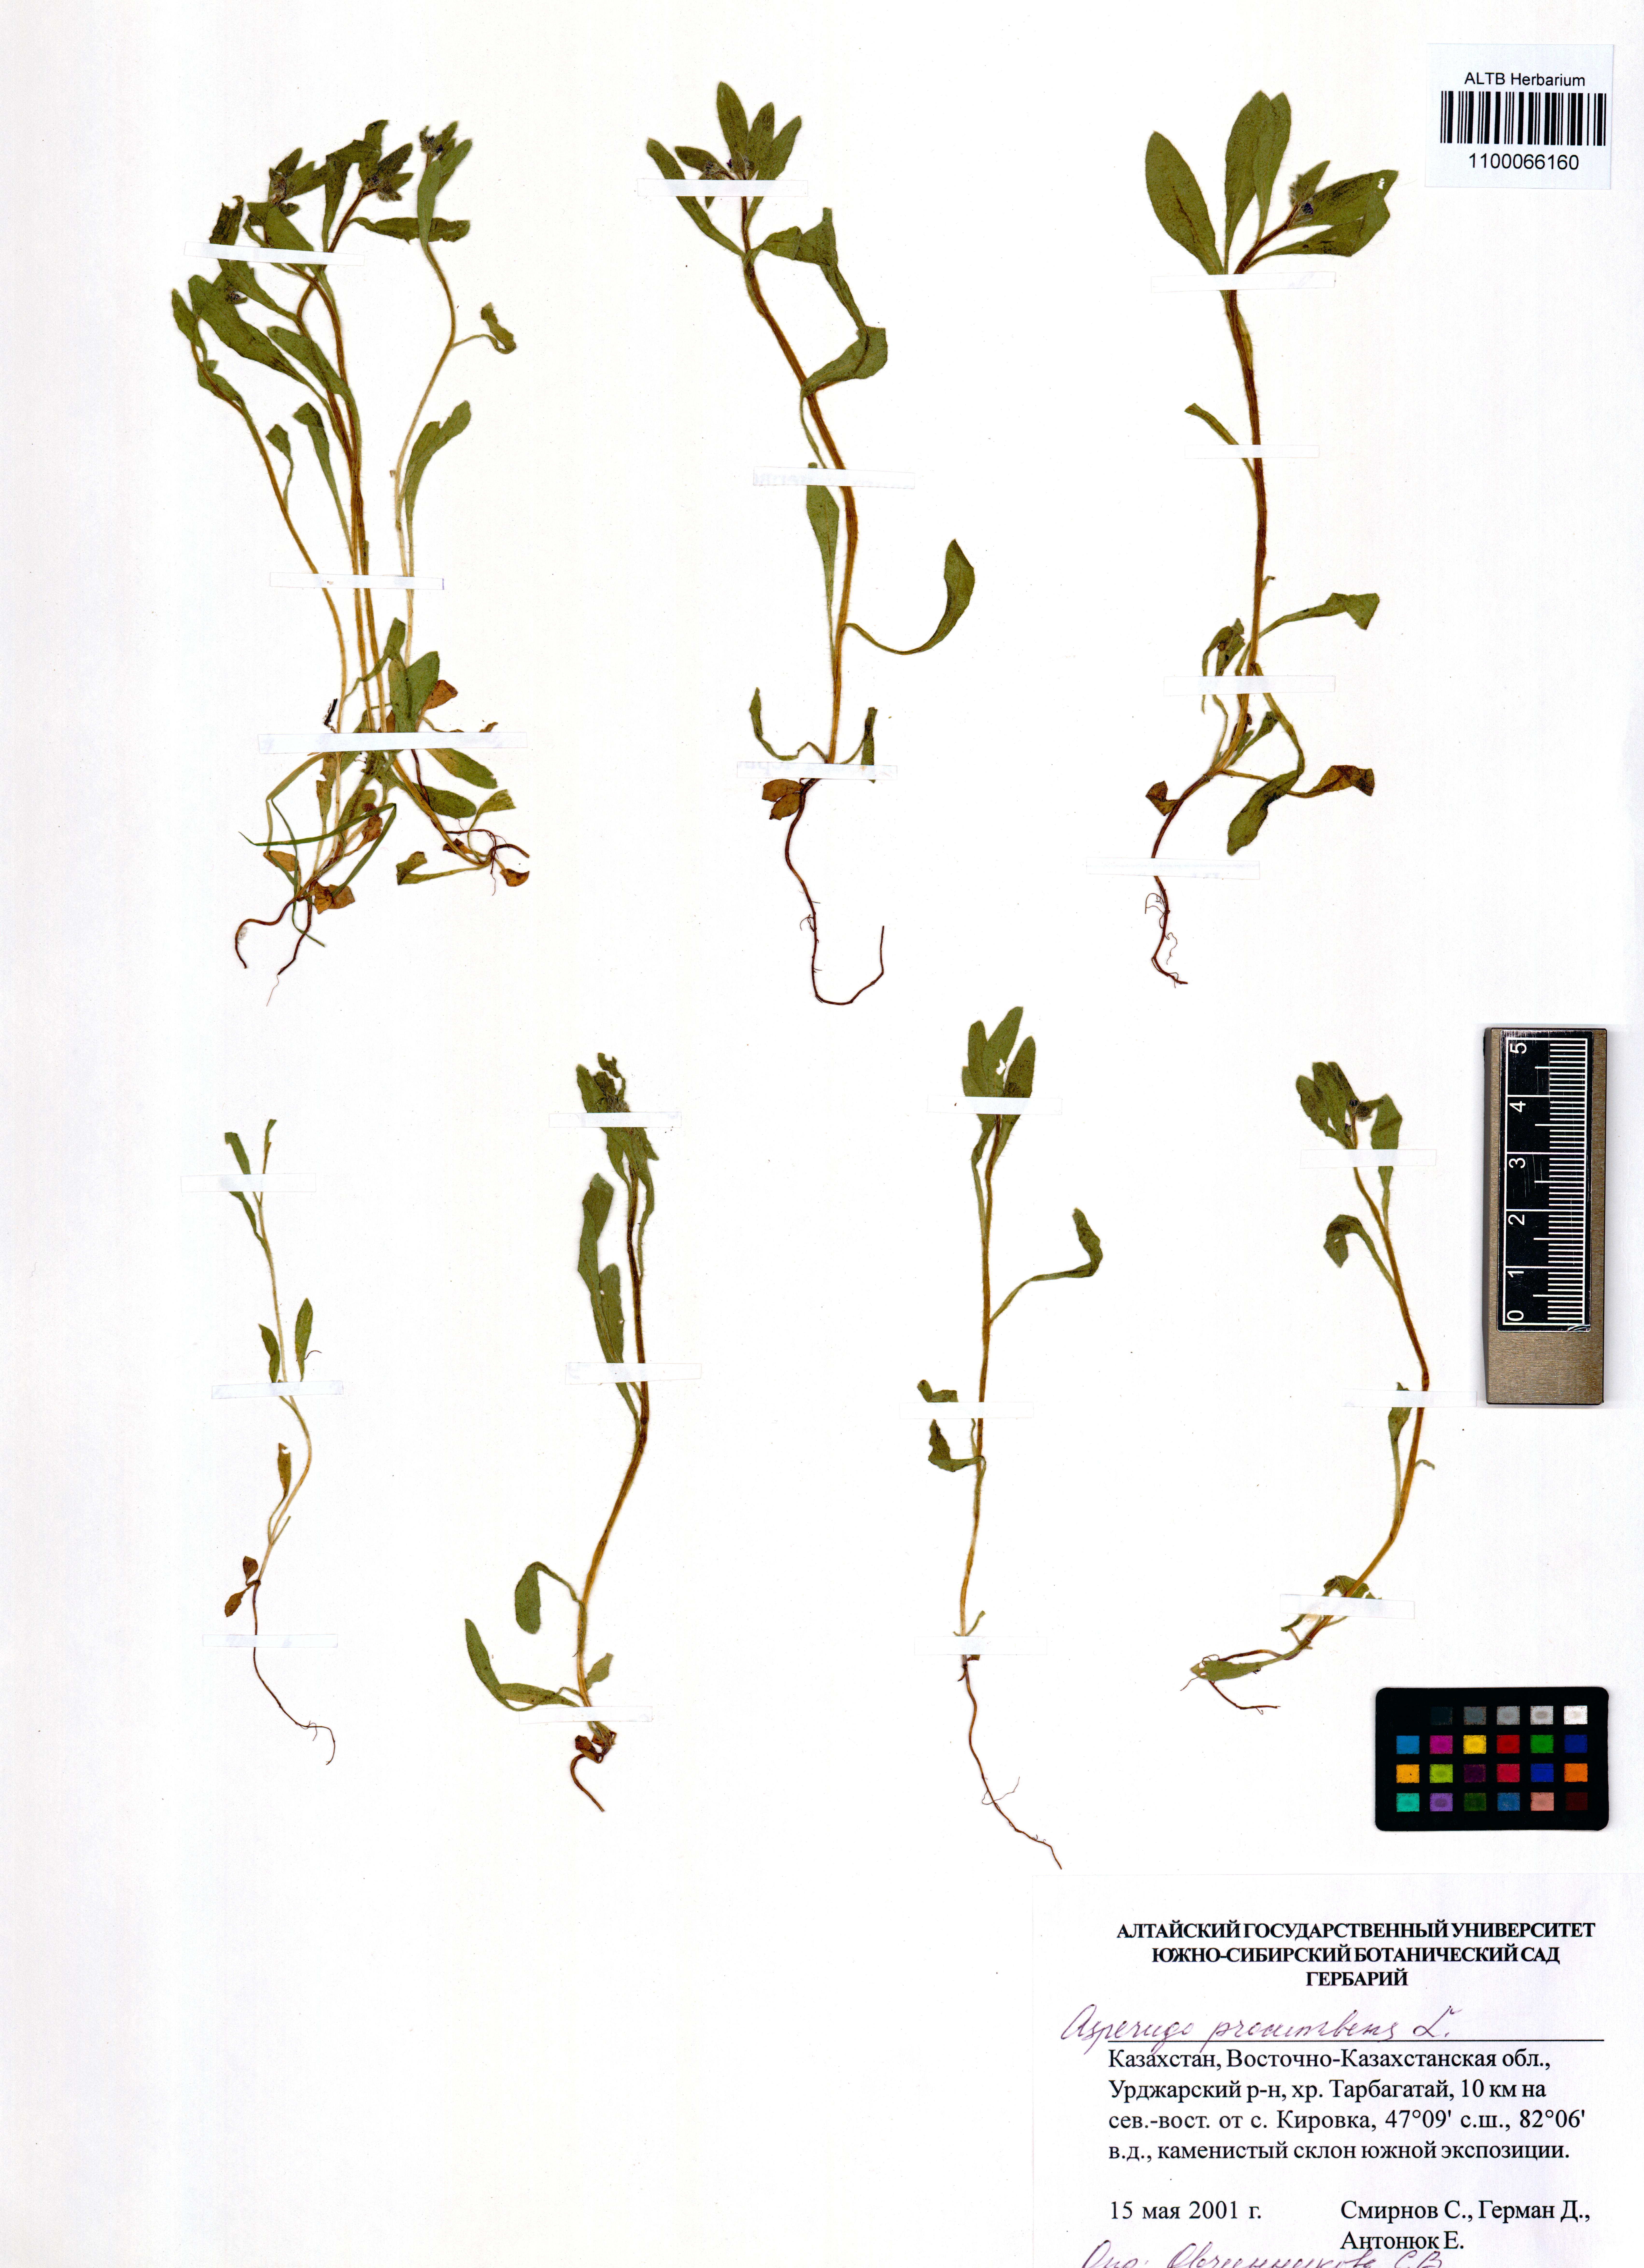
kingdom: Plantae
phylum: Tracheophyta
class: Magnoliopsida
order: Boraginales
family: Boraginaceae
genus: Asperugo
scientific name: Asperugo procumbens
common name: Madwort
